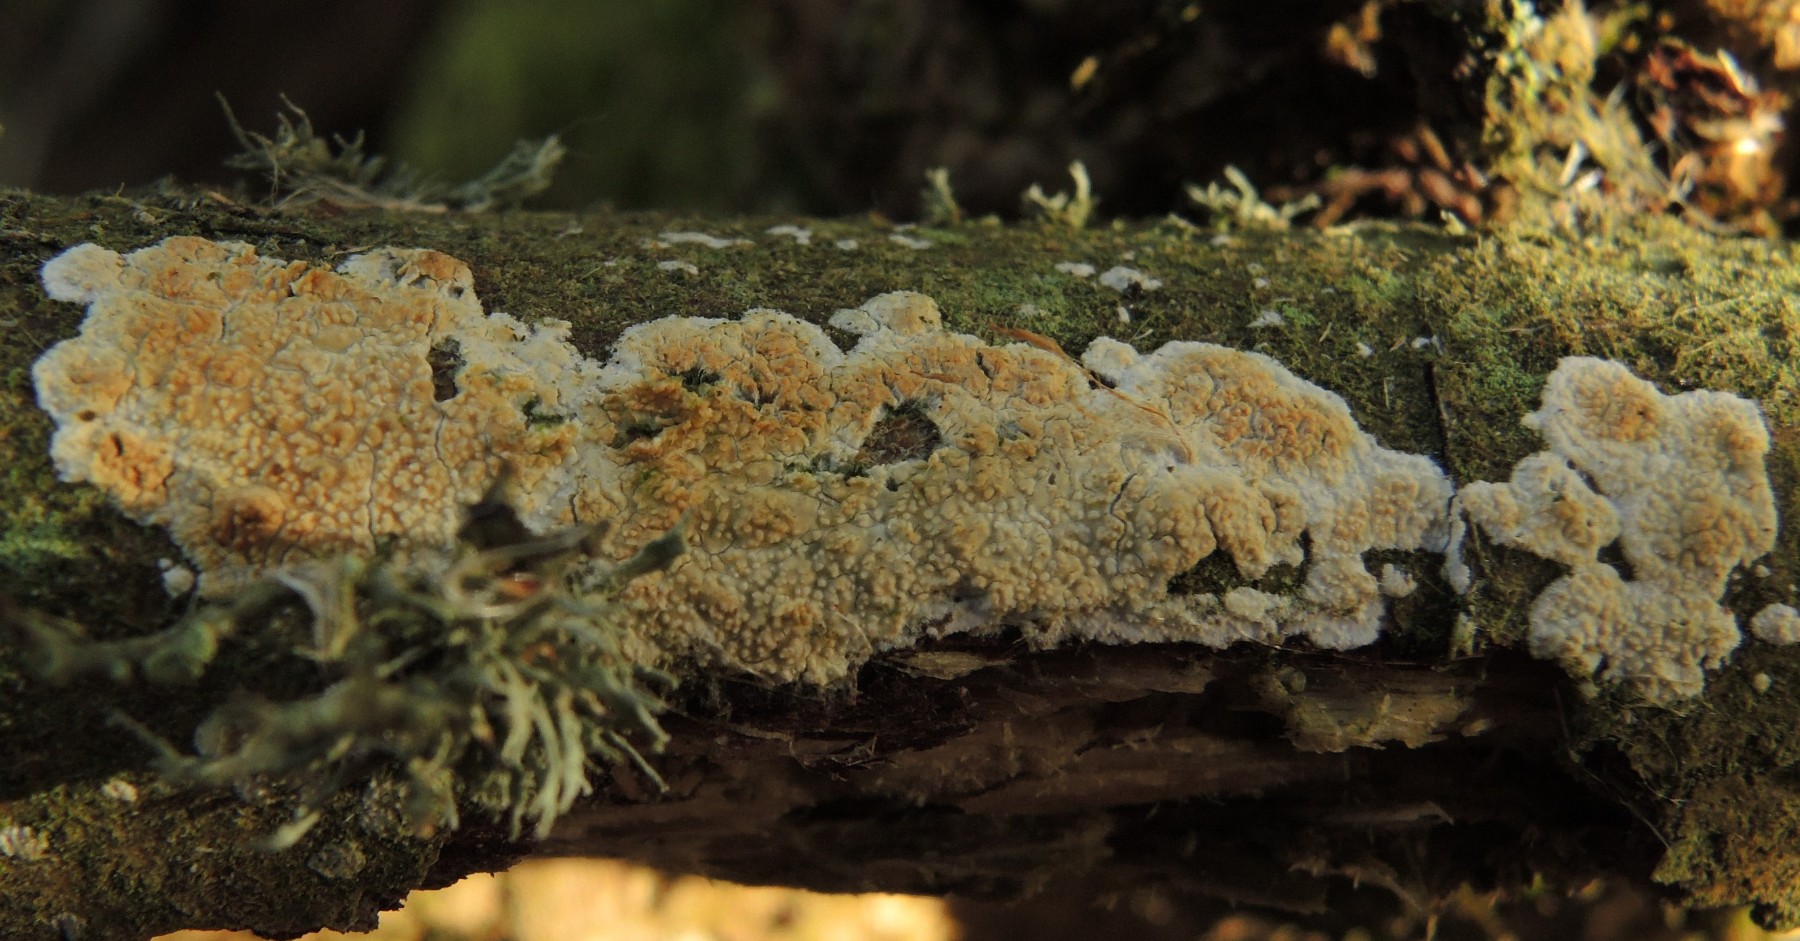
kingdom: Fungi
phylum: Basidiomycota
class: Agaricomycetes
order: Corticiales
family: Corticiaceae
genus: Lyomyces
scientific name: Lyomyces crustosus
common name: vortet hyldehinde
